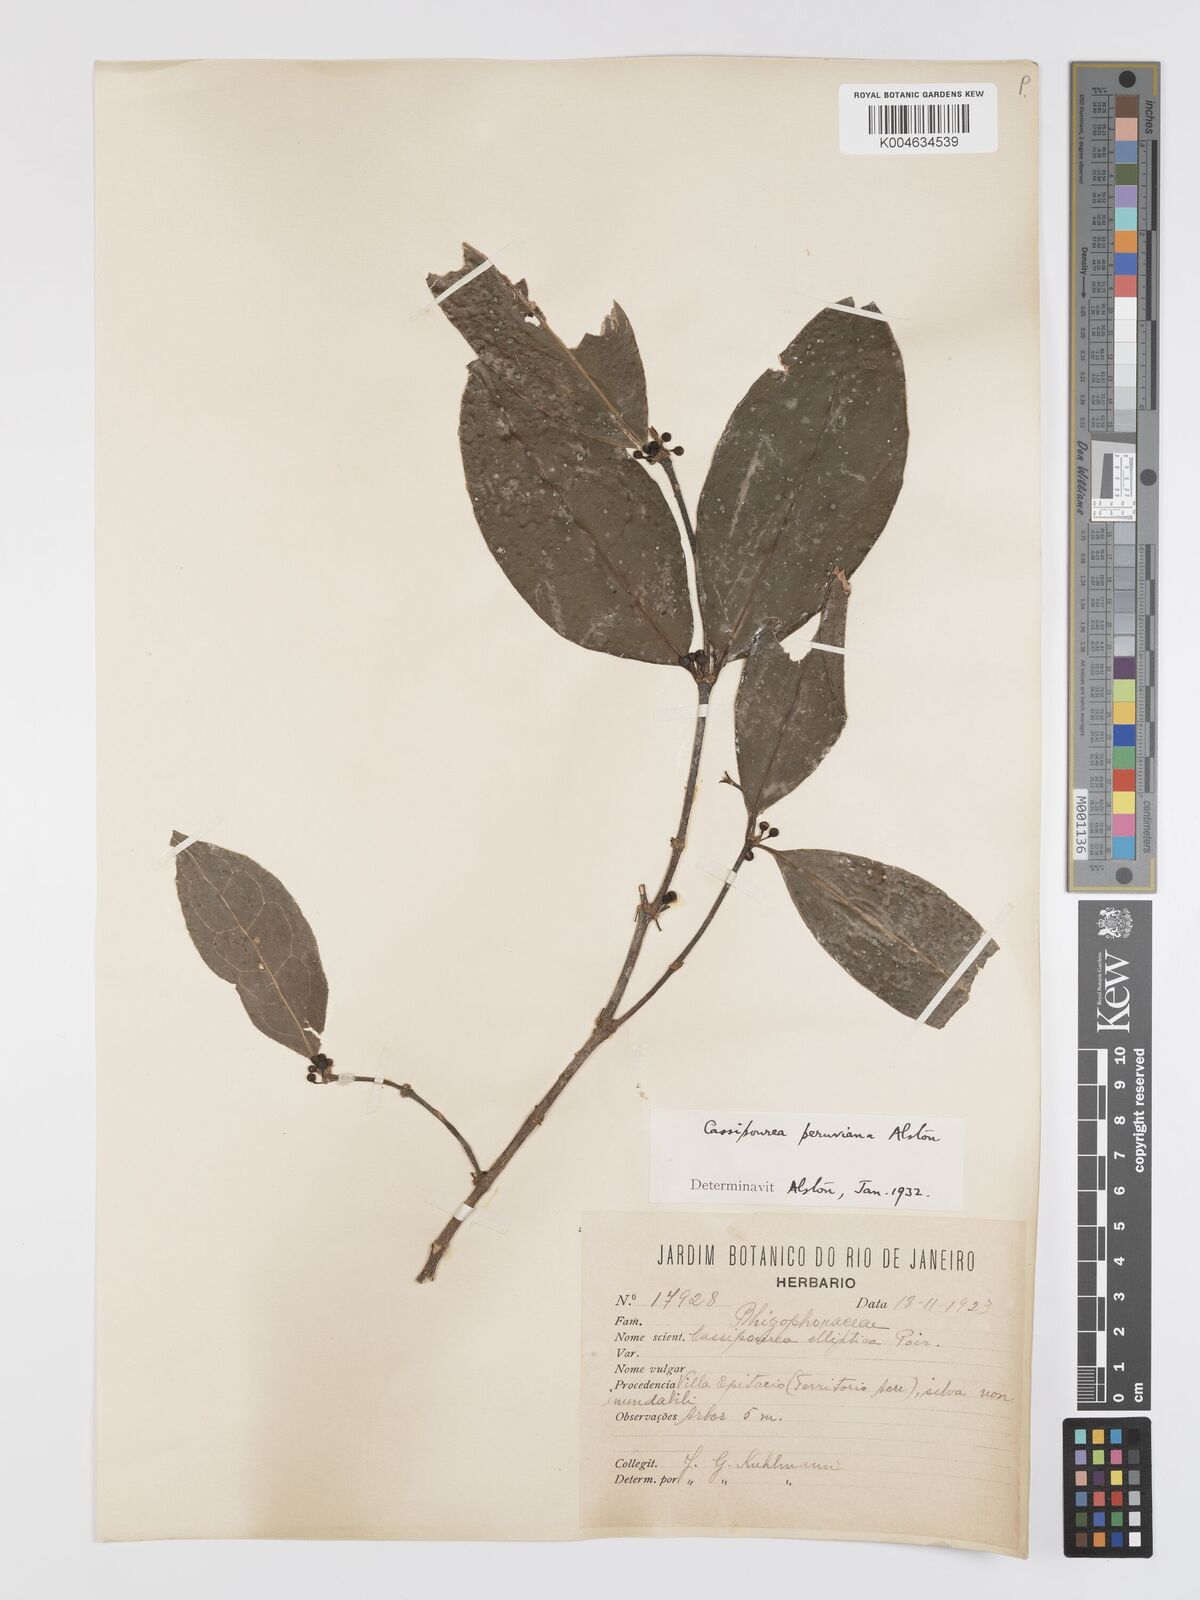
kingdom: Plantae
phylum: Tracheophyta
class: Magnoliopsida
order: Malpighiales
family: Rhizophoraceae
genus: Cassipourea
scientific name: Cassipourea peruviana
